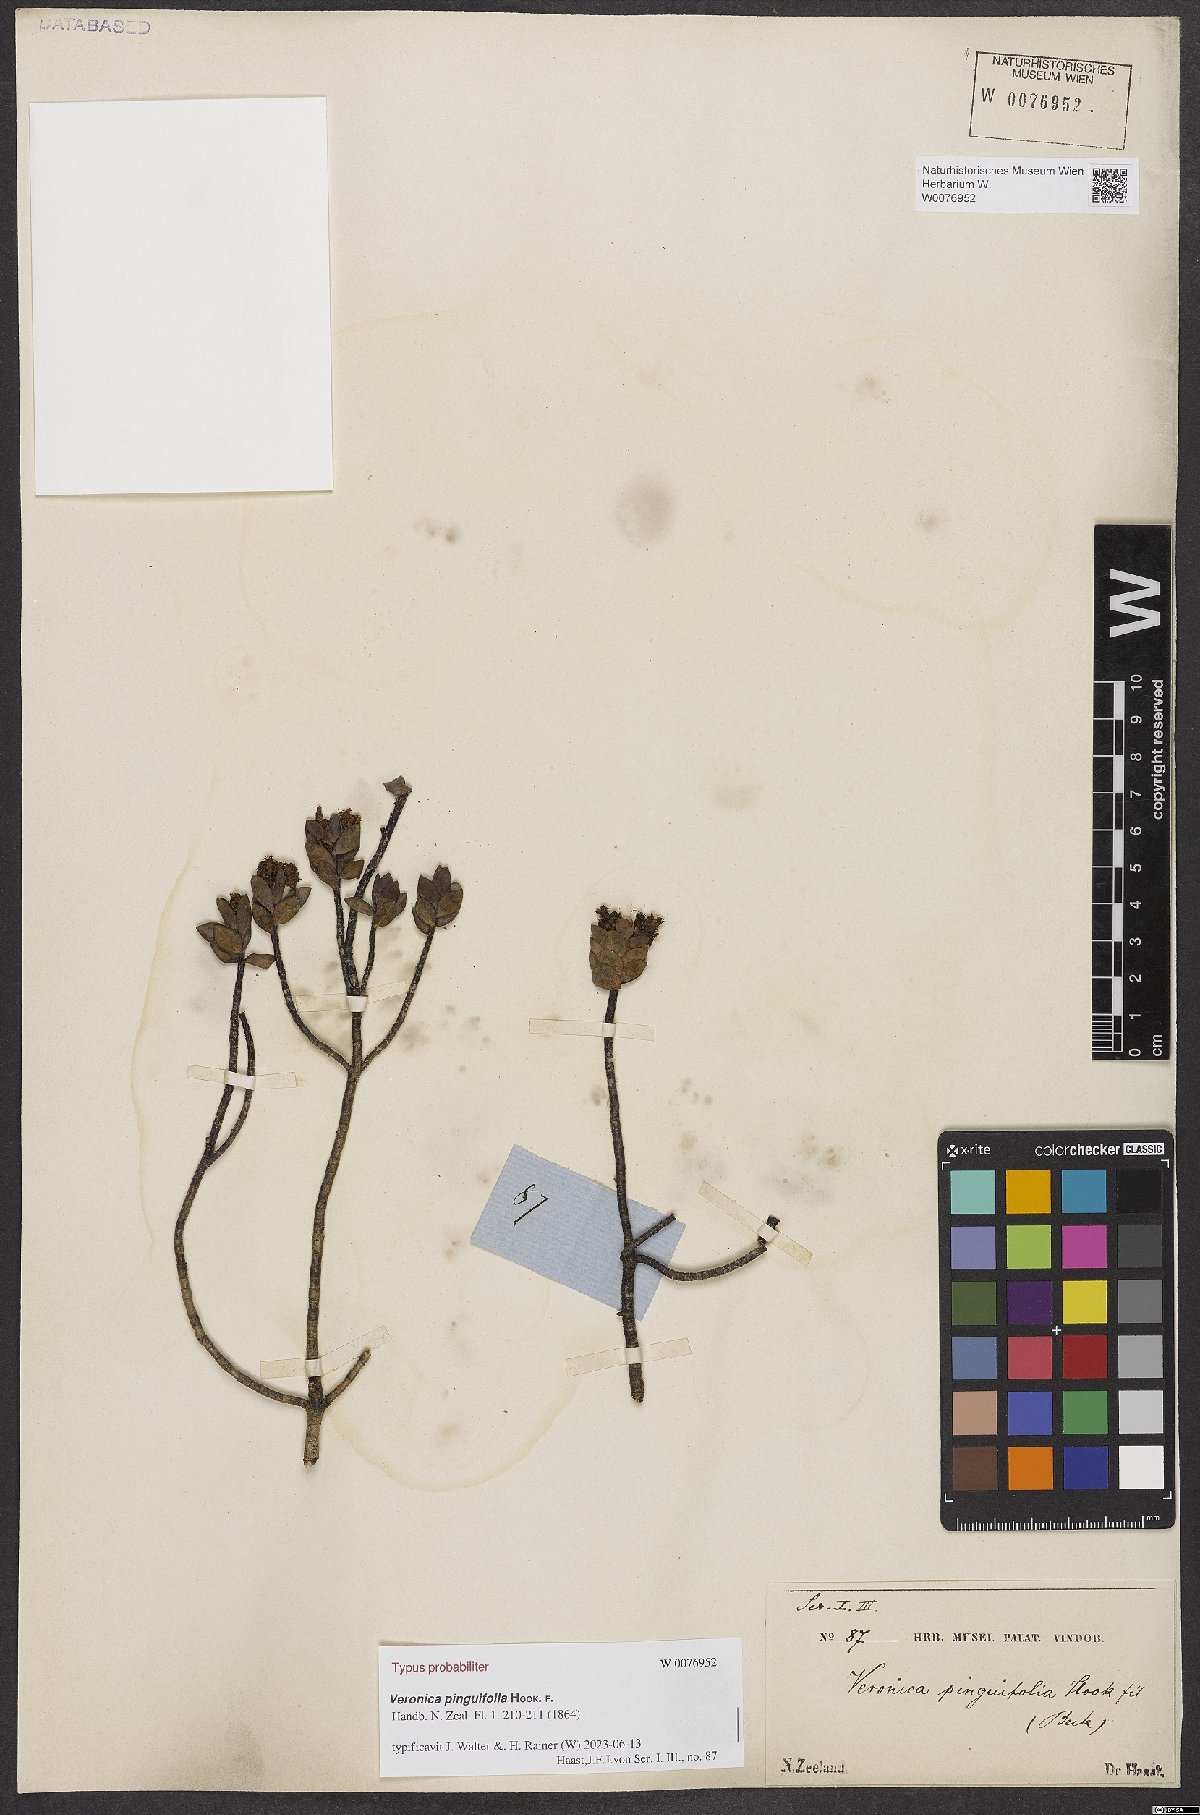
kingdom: Plantae
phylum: Tracheophyta
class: Magnoliopsida
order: Lamiales
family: Plantaginaceae
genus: Veronica
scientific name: Veronica pinguifolia
